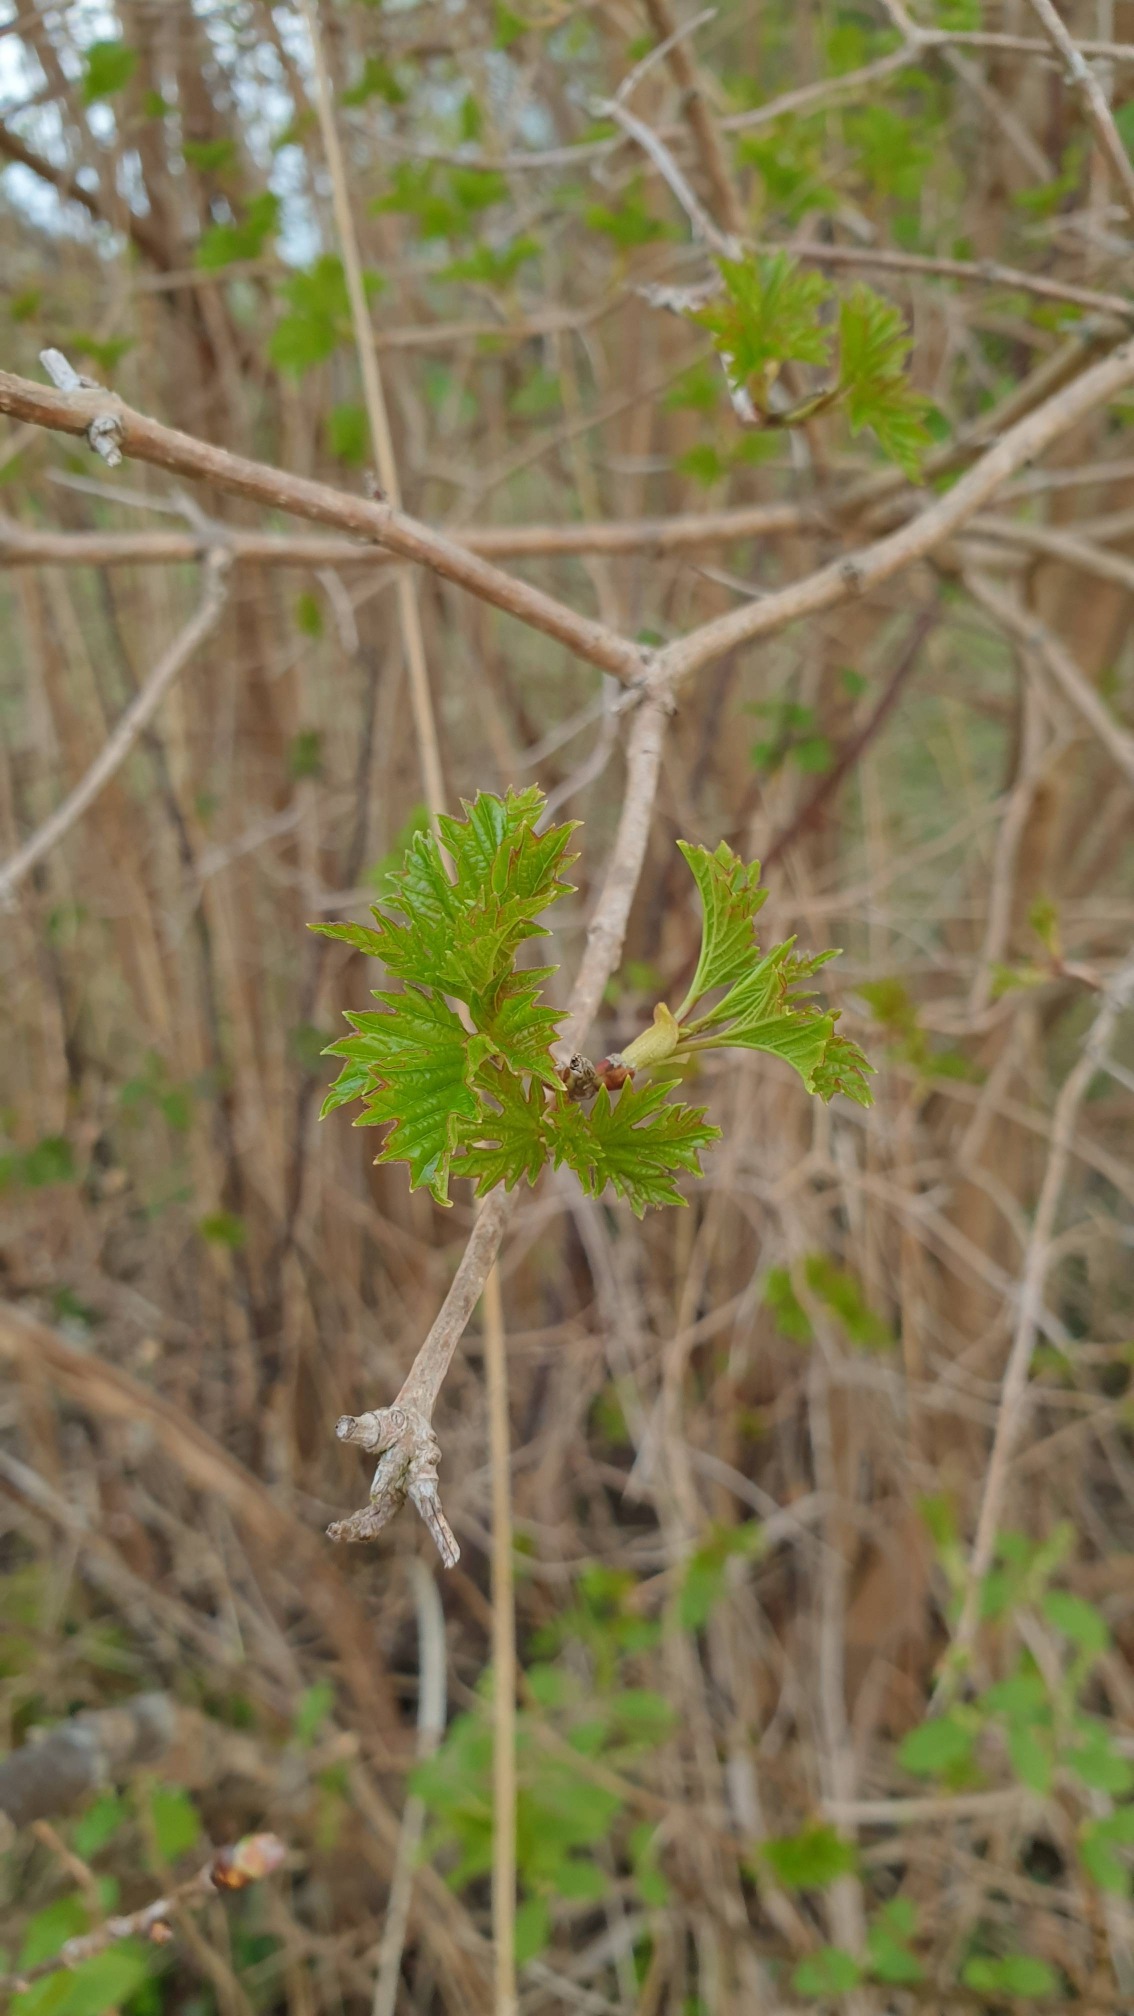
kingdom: Plantae
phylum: Tracheophyta
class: Magnoliopsida
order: Dipsacales
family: Viburnaceae
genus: Viburnum
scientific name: Viburnum opulus
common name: Kvalkved
